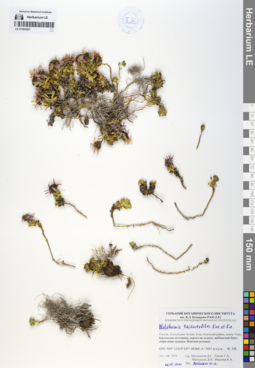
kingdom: Plantae
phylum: Tracheophyta
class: Magnoliopsida
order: Asterales
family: Asteraceae
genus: Allardia
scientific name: Allardia tridactylites
